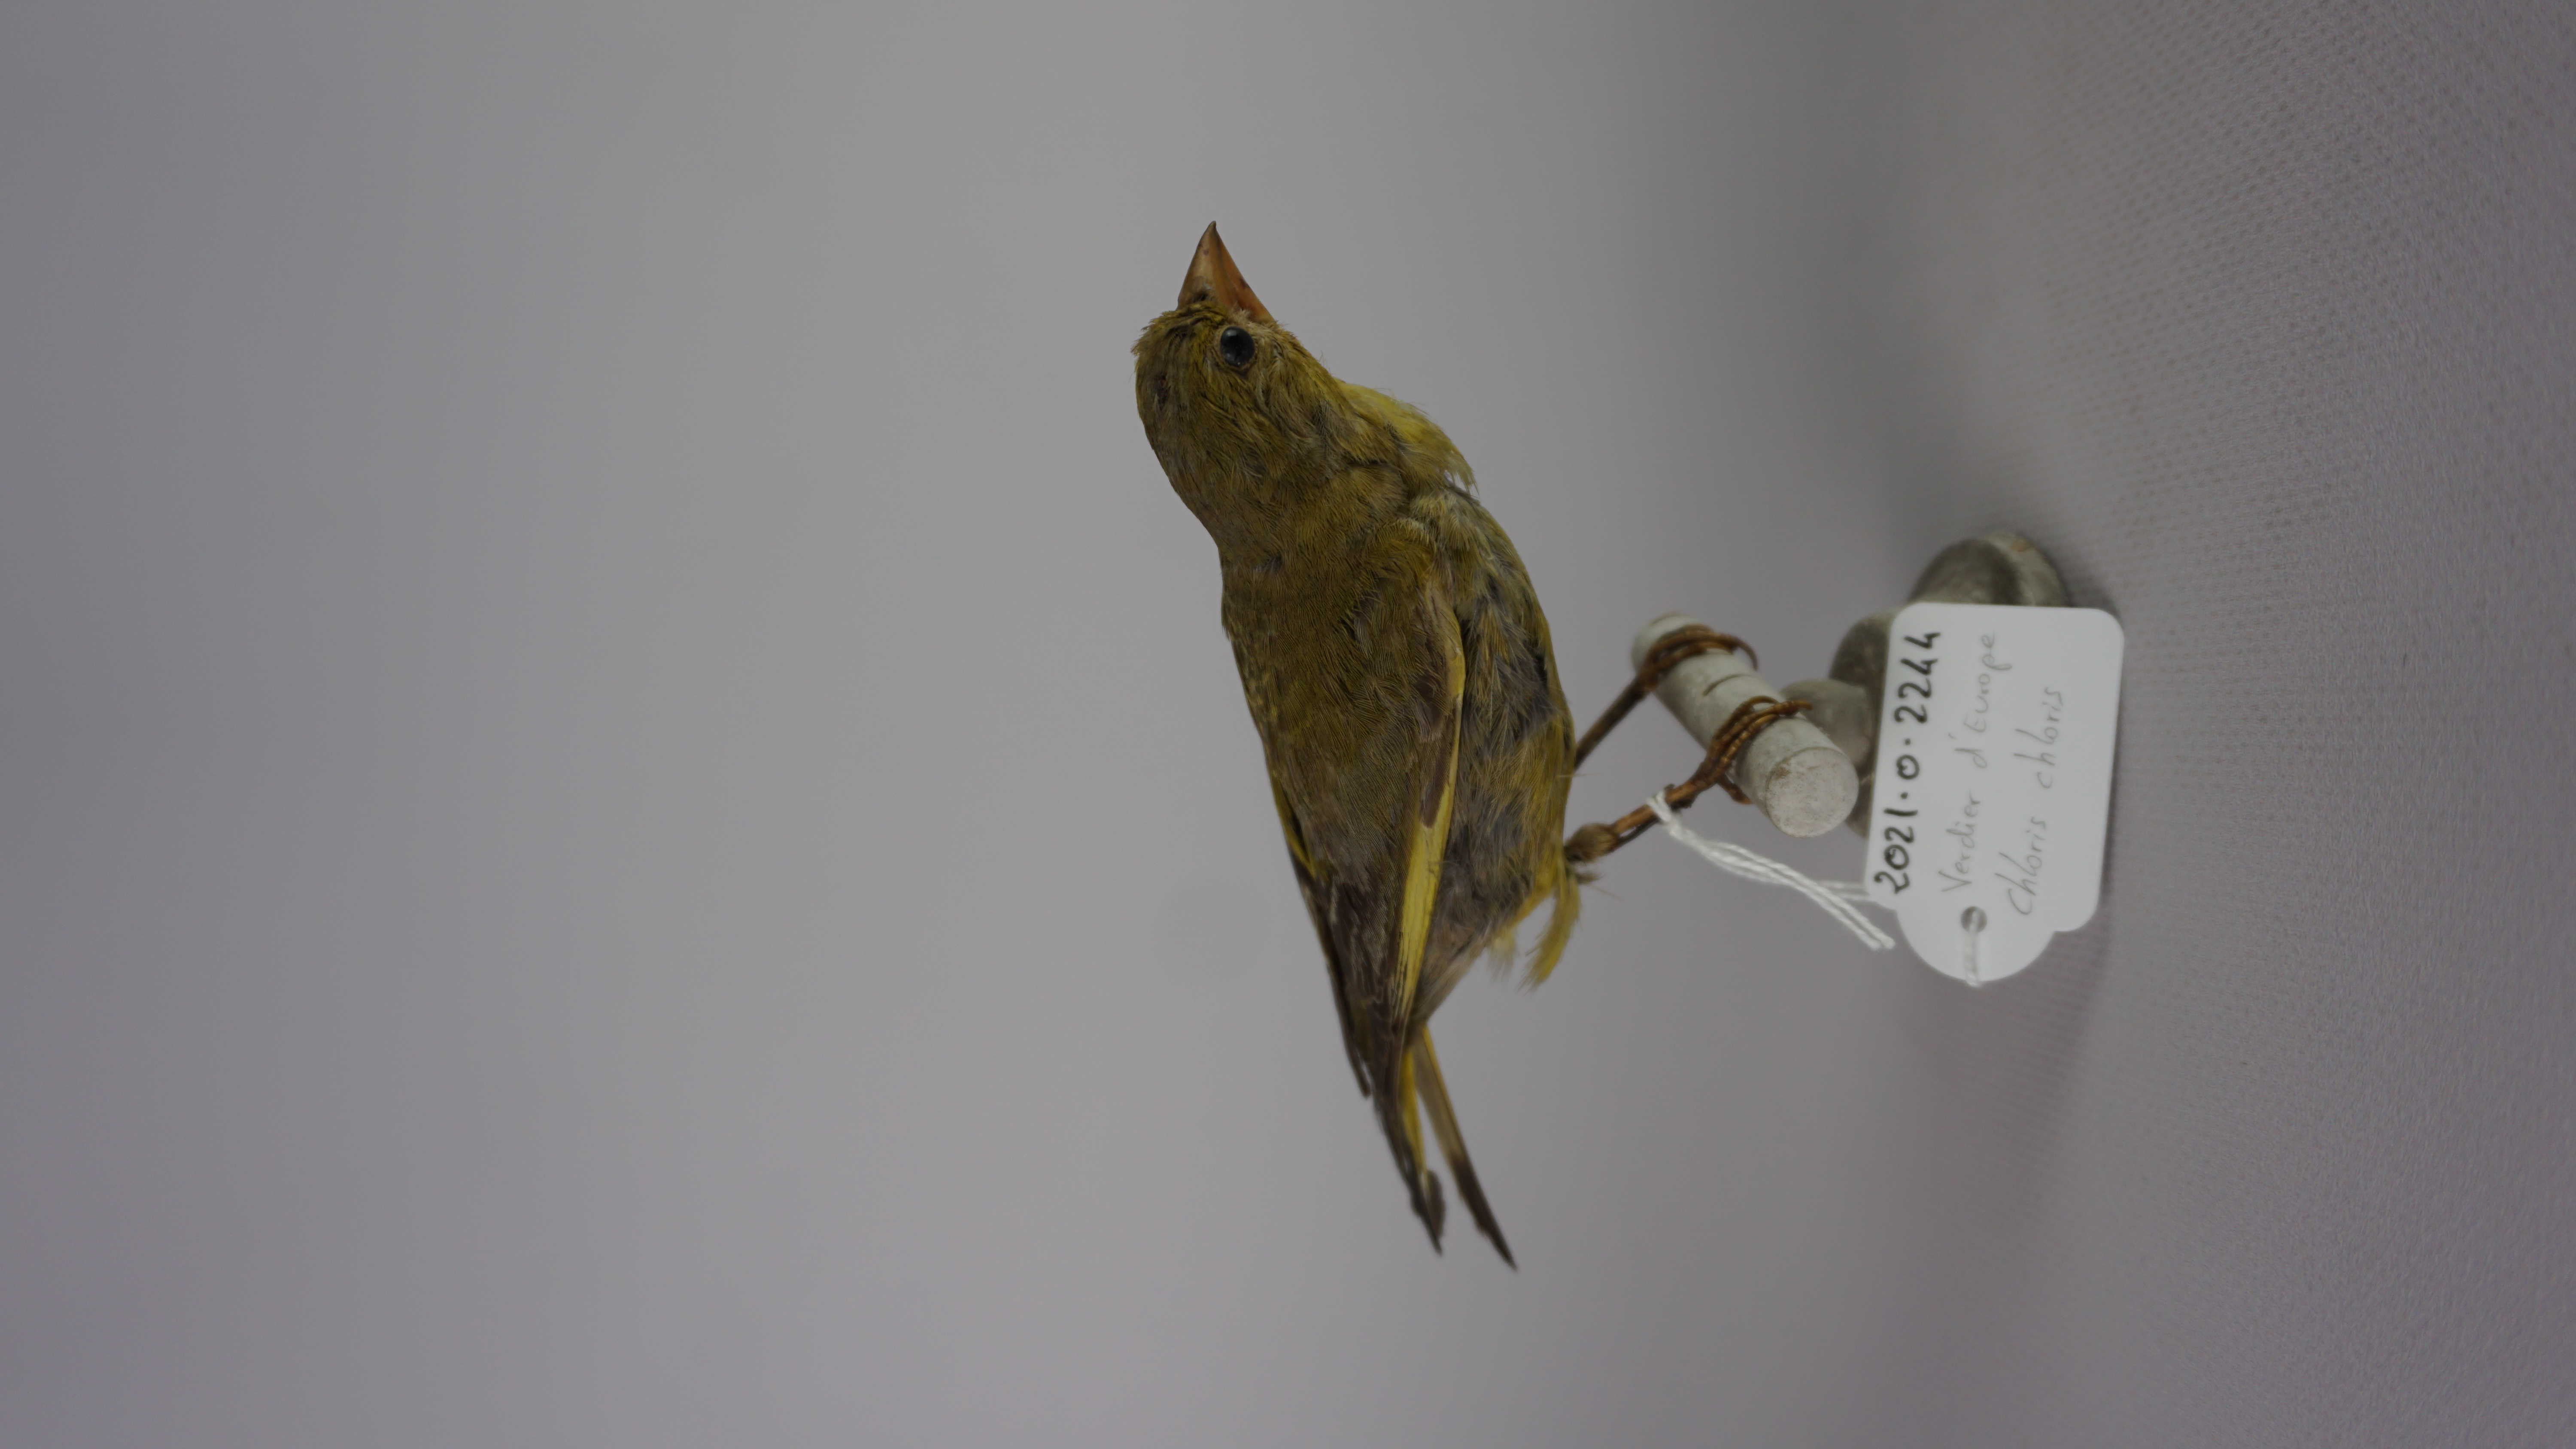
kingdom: Plantae
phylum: Tracheophyta
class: Liliopsida
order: Poales
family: Poaceae
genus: Chloris
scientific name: Chloris chloris
